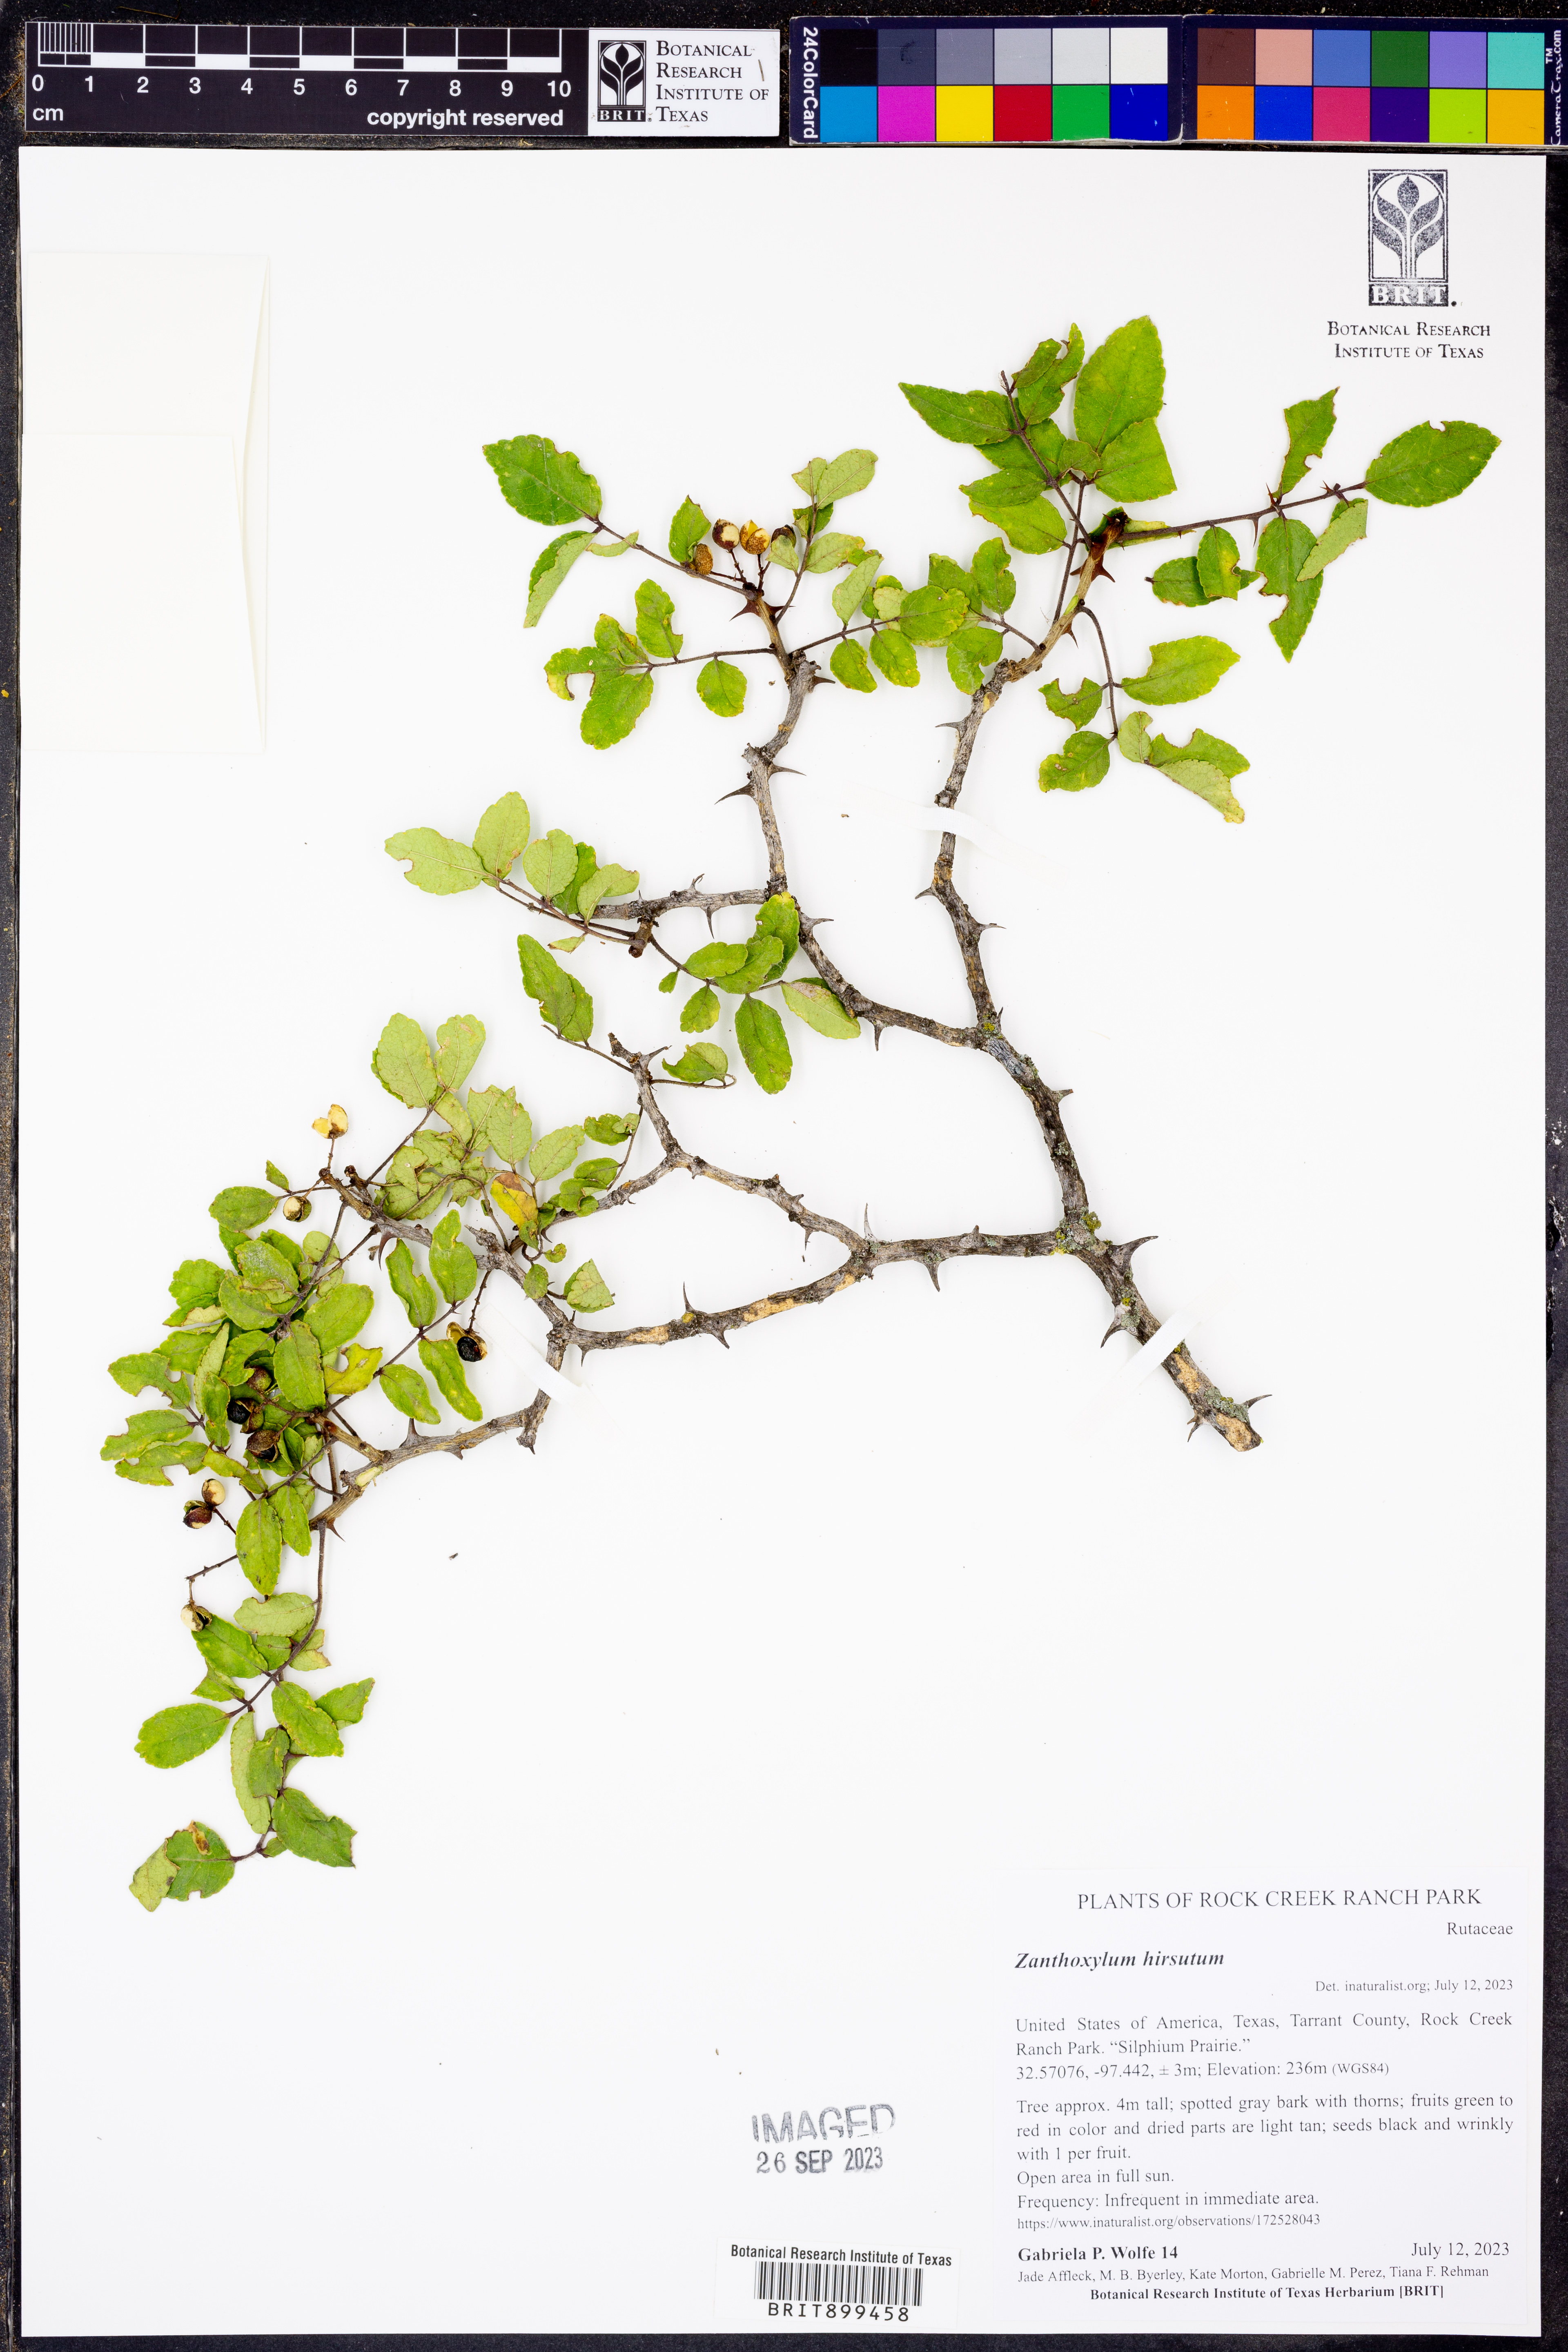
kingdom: Plantae
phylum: Tracheophyta
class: Magnoliopsida
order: Sapindales
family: Rutaceae
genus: Zanthoxylum
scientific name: Zanthoxylum clava-herculis
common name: Hercules'-club
